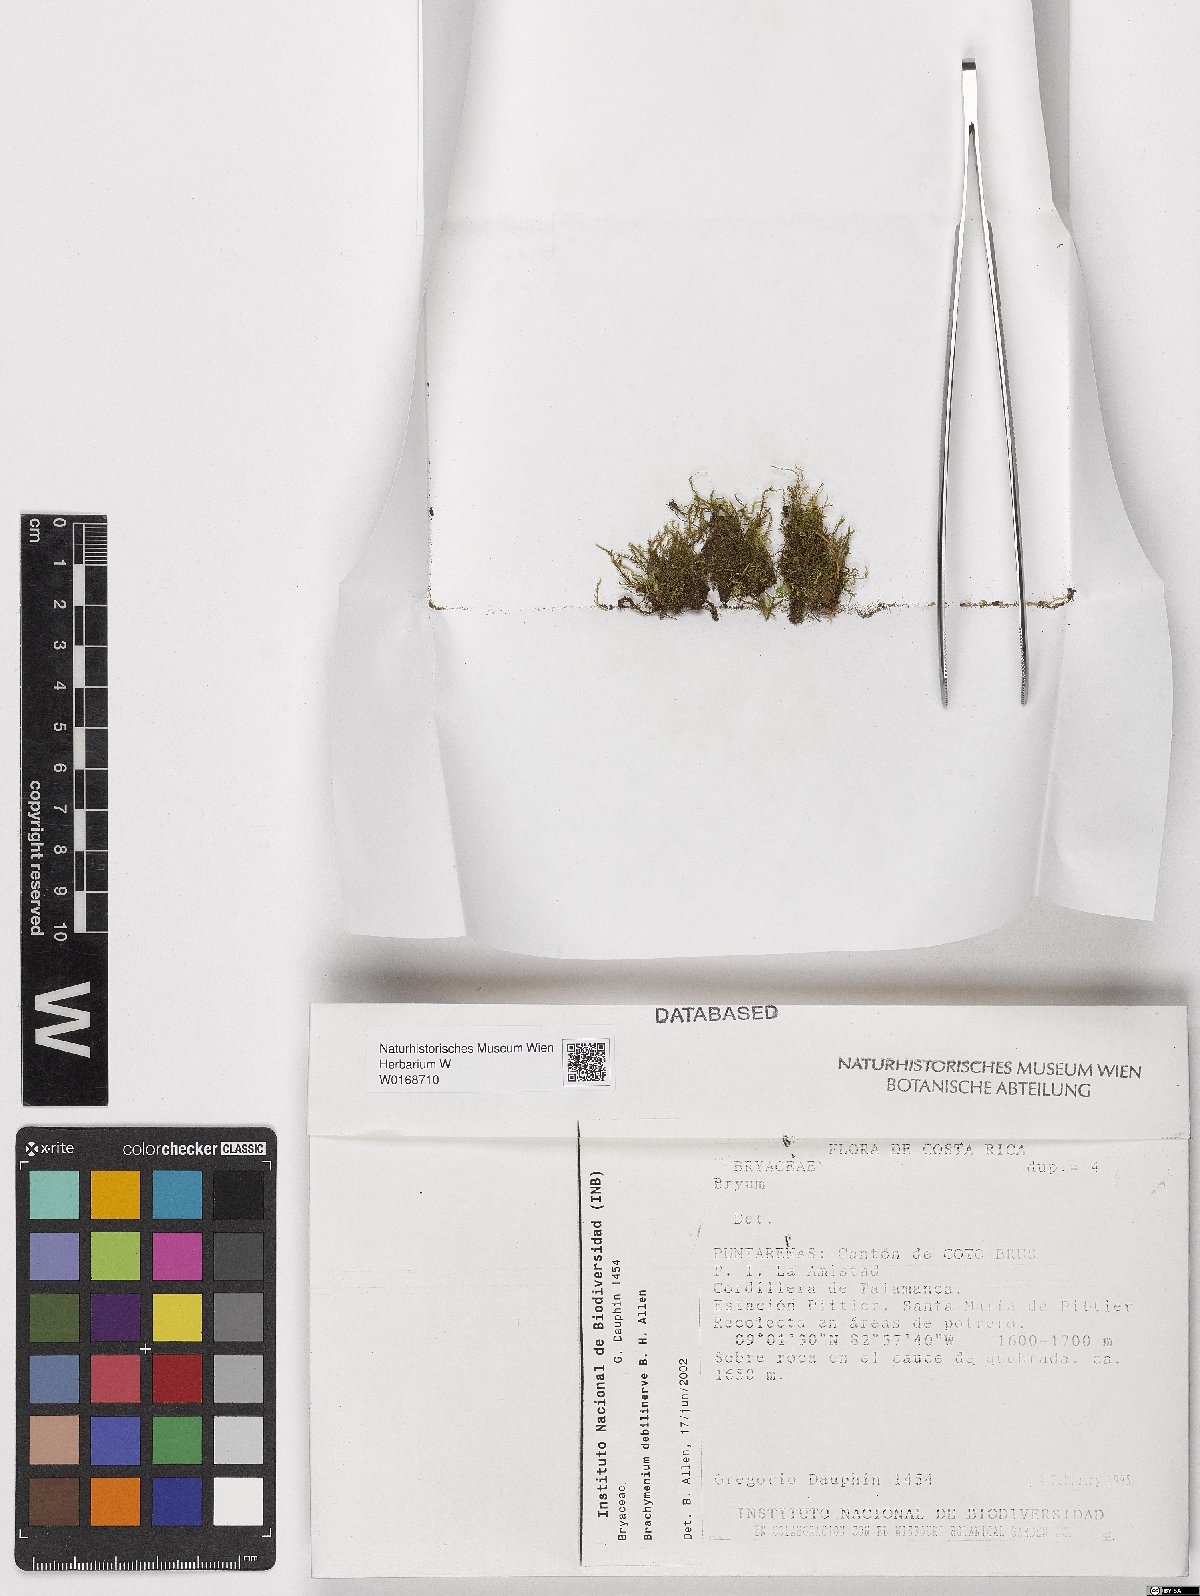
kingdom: Plantae
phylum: Bryophyta
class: Bryopsida
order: Bryales
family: Bryaceae
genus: Bryum
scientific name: Bryum
